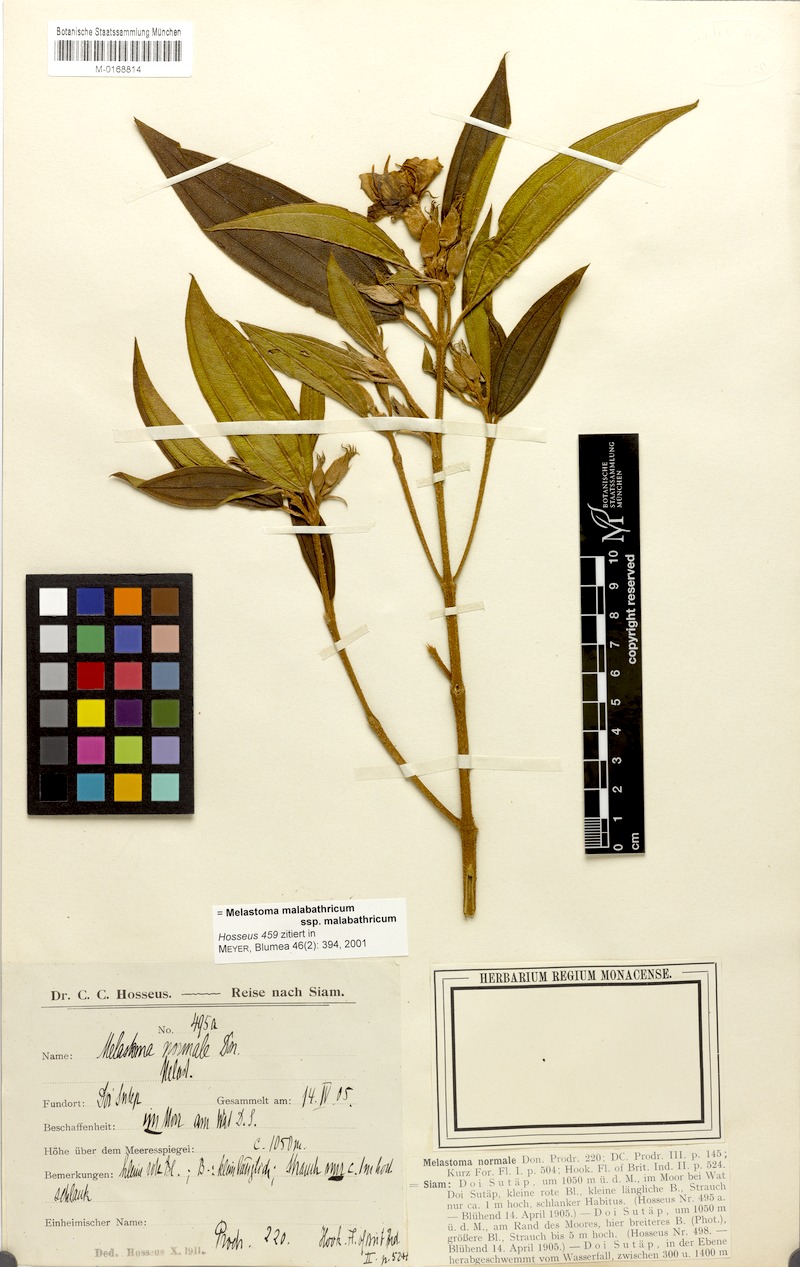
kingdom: Plantae
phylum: Tracheophyta
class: Magnoliopsida
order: Myrtales
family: Melastomataceae
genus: Melastoma
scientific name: Melastoma malabathricum
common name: Indian-rhododendron
